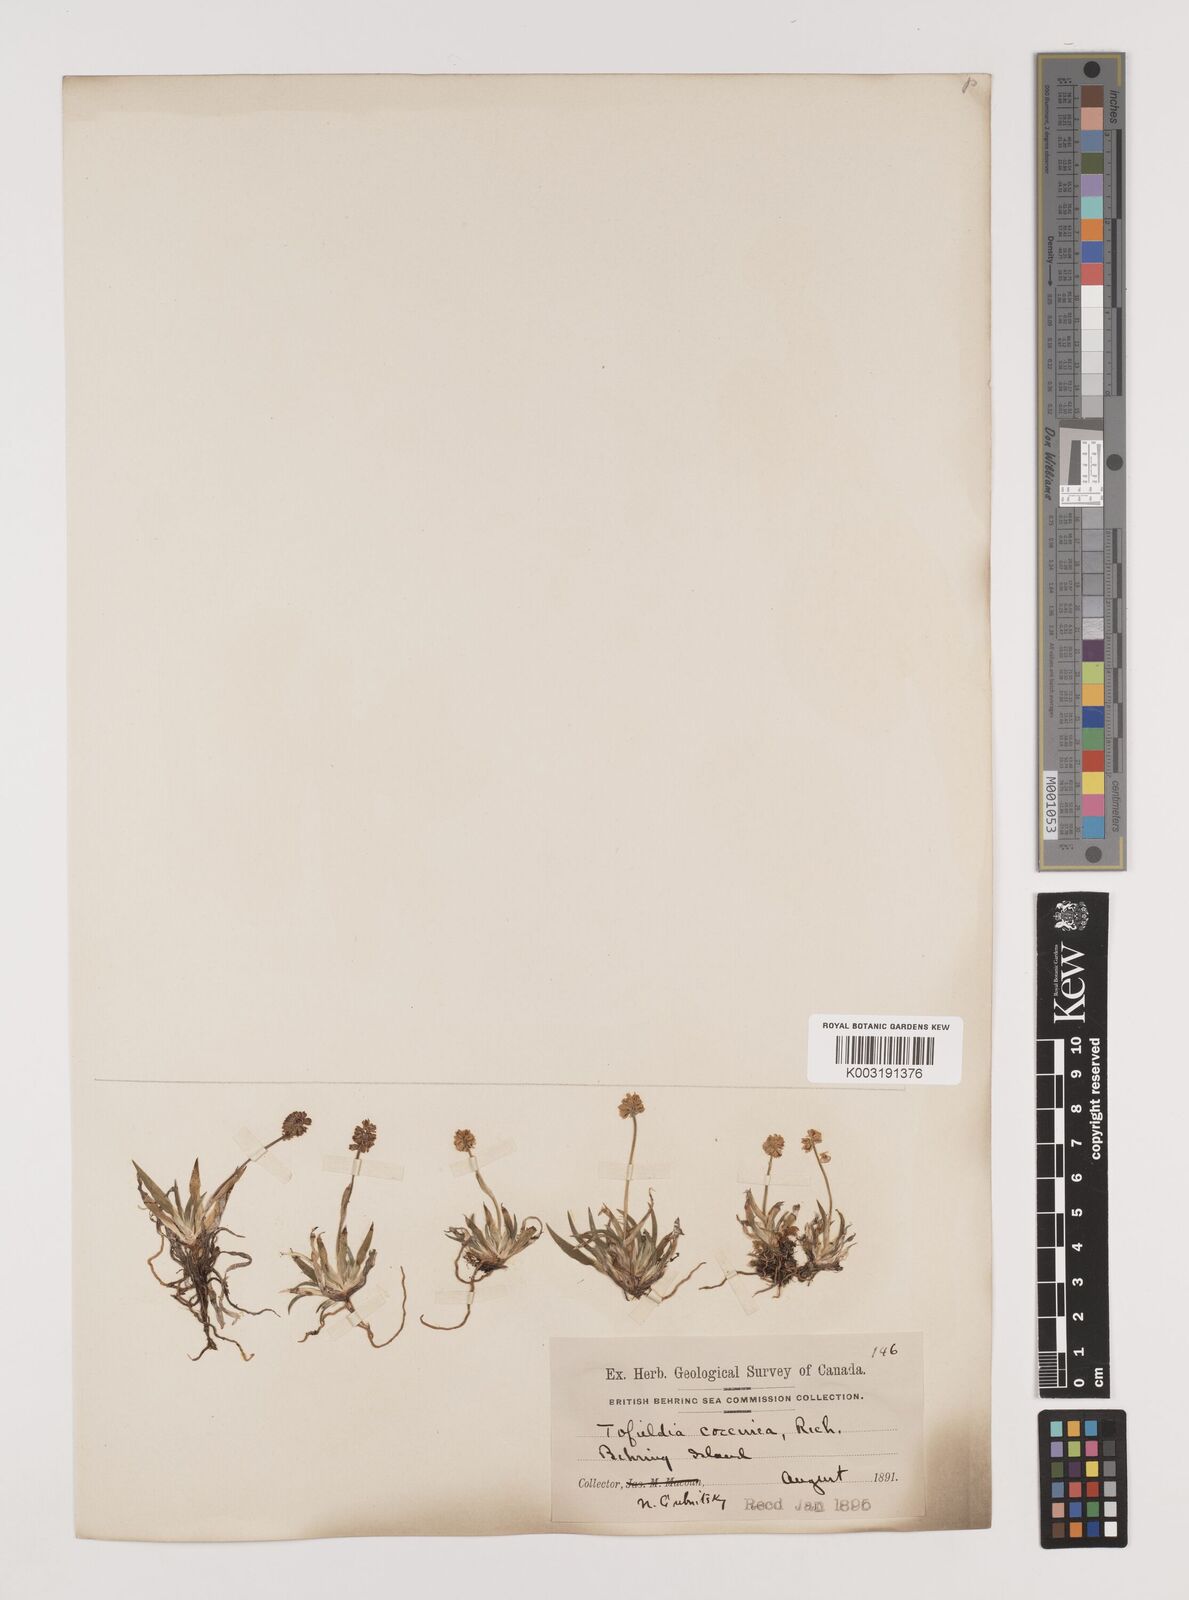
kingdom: Plantae
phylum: Tracheophyta
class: Liliopsida
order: Alismatales
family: Tofieldiaceae
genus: Tofieldia
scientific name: Tofieldia coccinea
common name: Northern false asphodel
